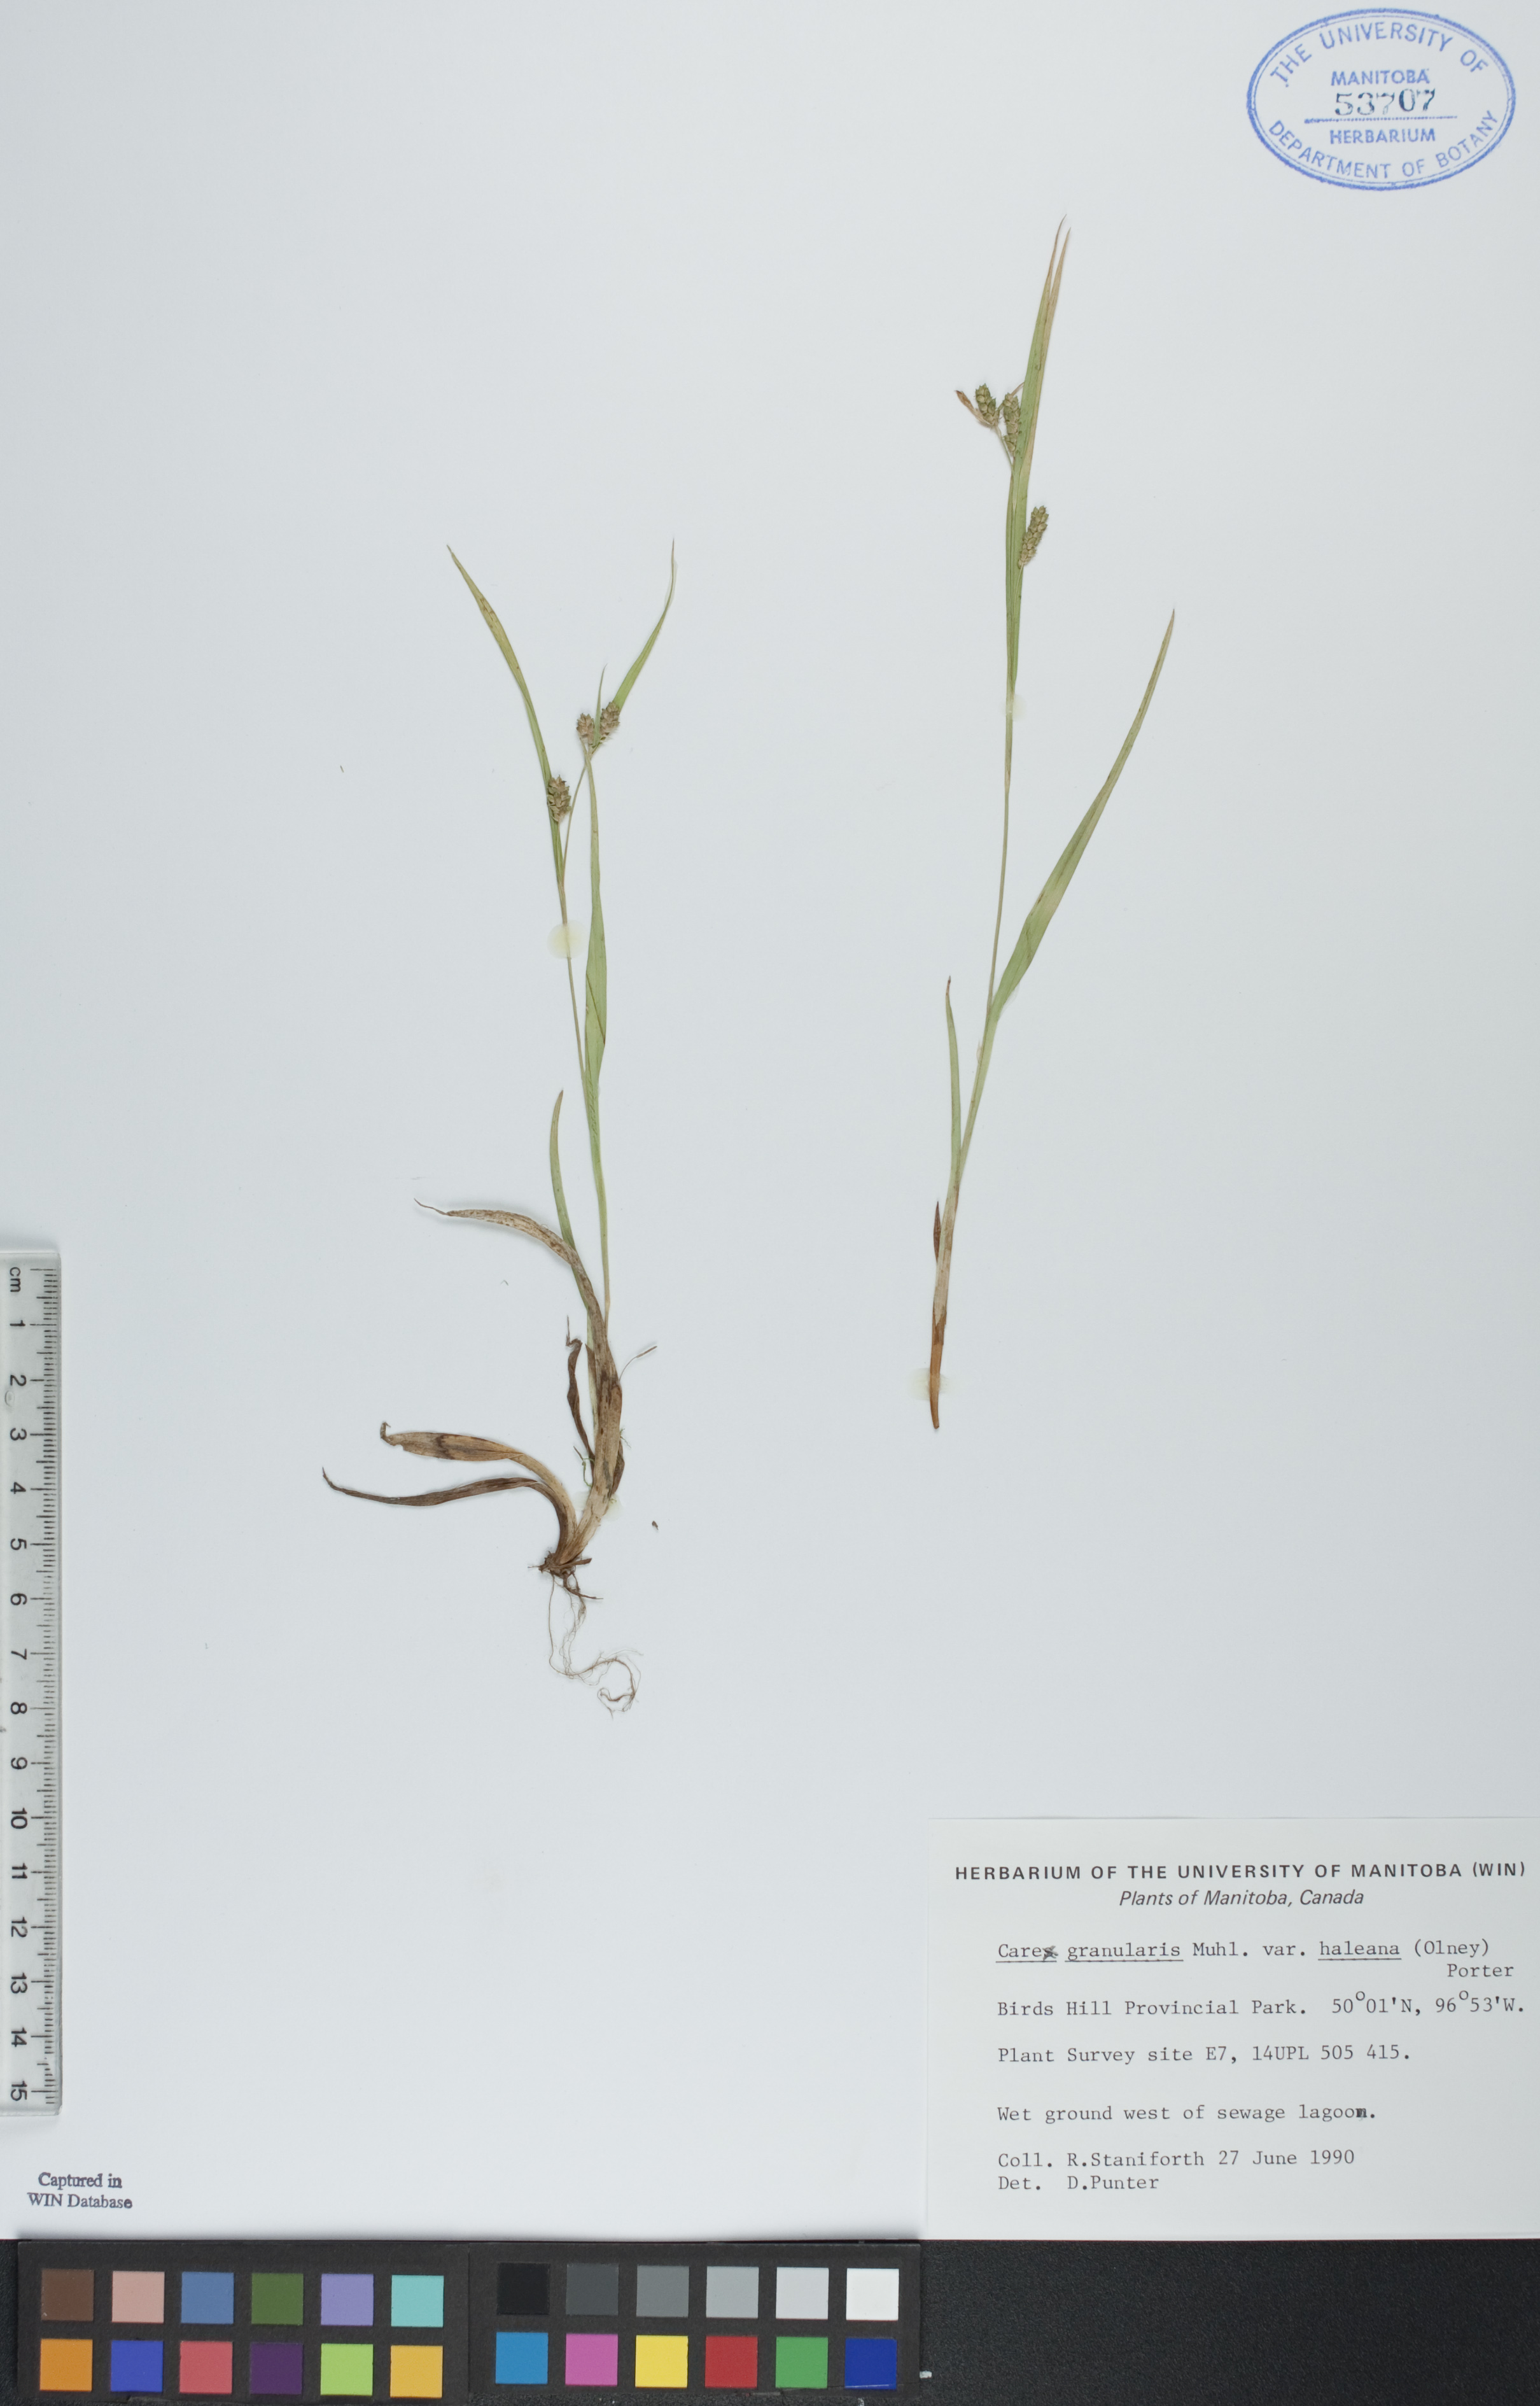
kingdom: Plantae
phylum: Tracheophyta
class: Liliopsida
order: Poales
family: Cyperaceae
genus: Carex
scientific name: Carex granularis
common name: Granular sedge
